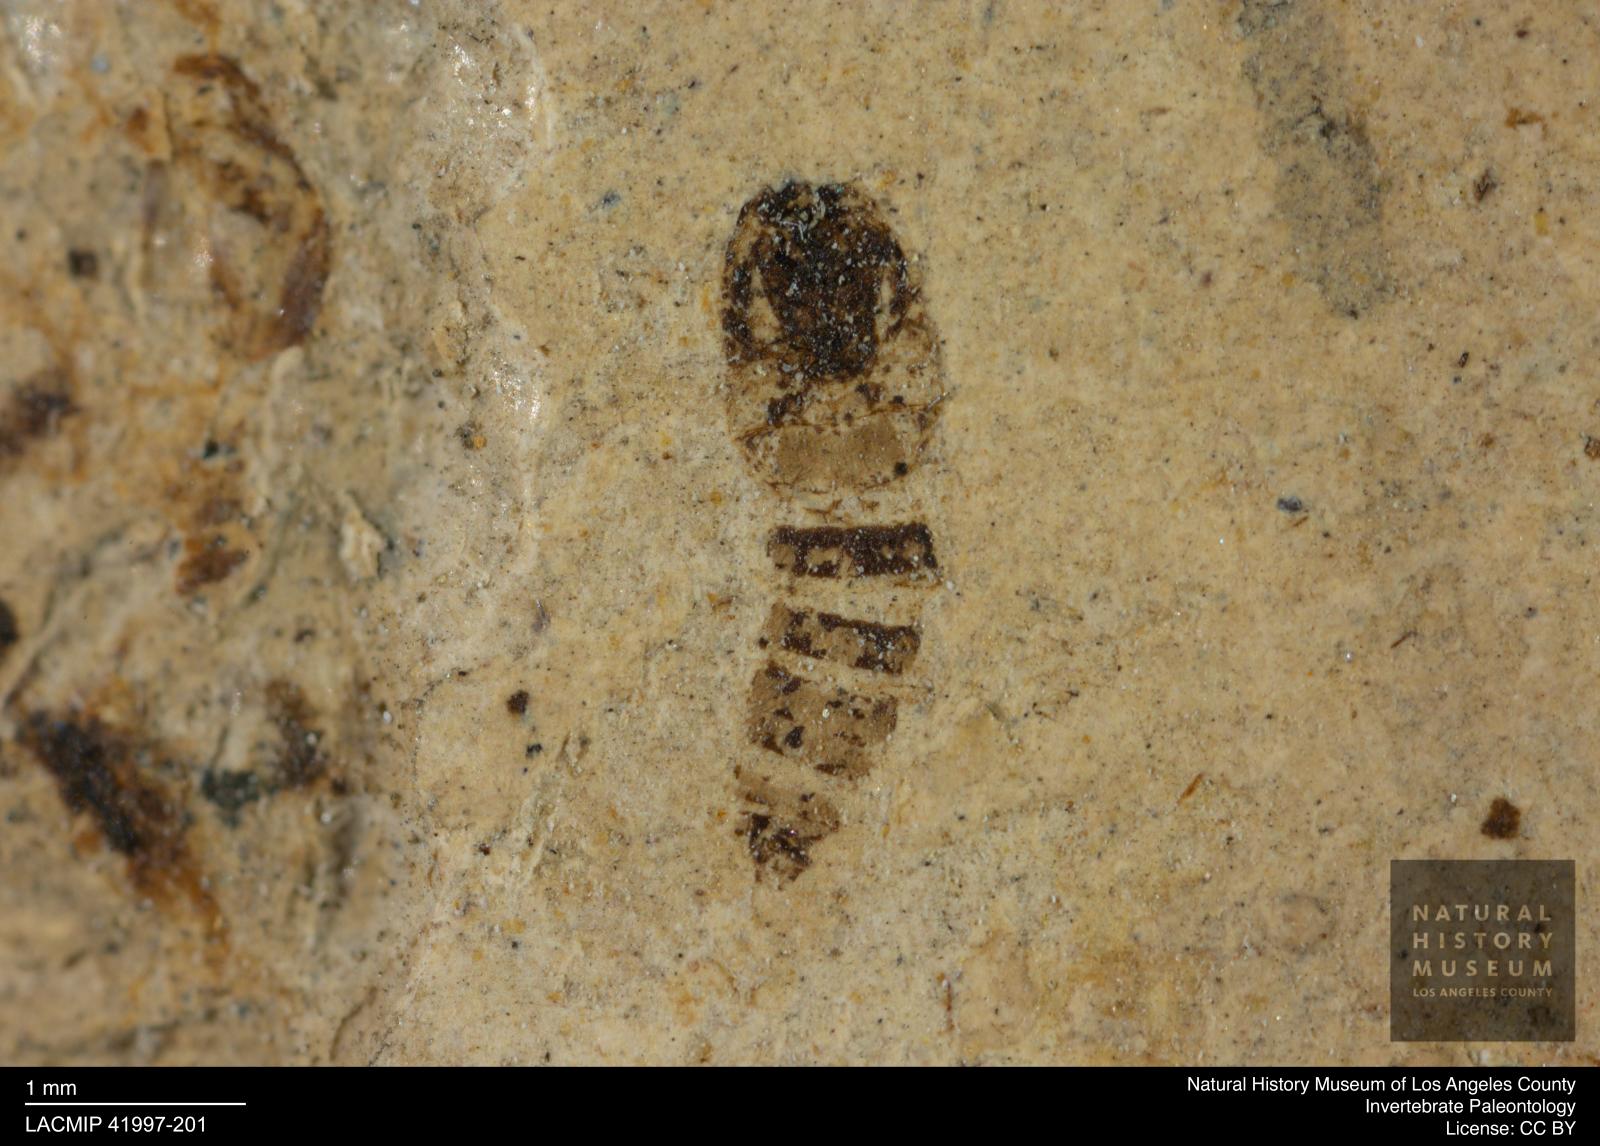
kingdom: Animalia
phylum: Arthropoda
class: Insecta
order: Diptera
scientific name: Diptera
